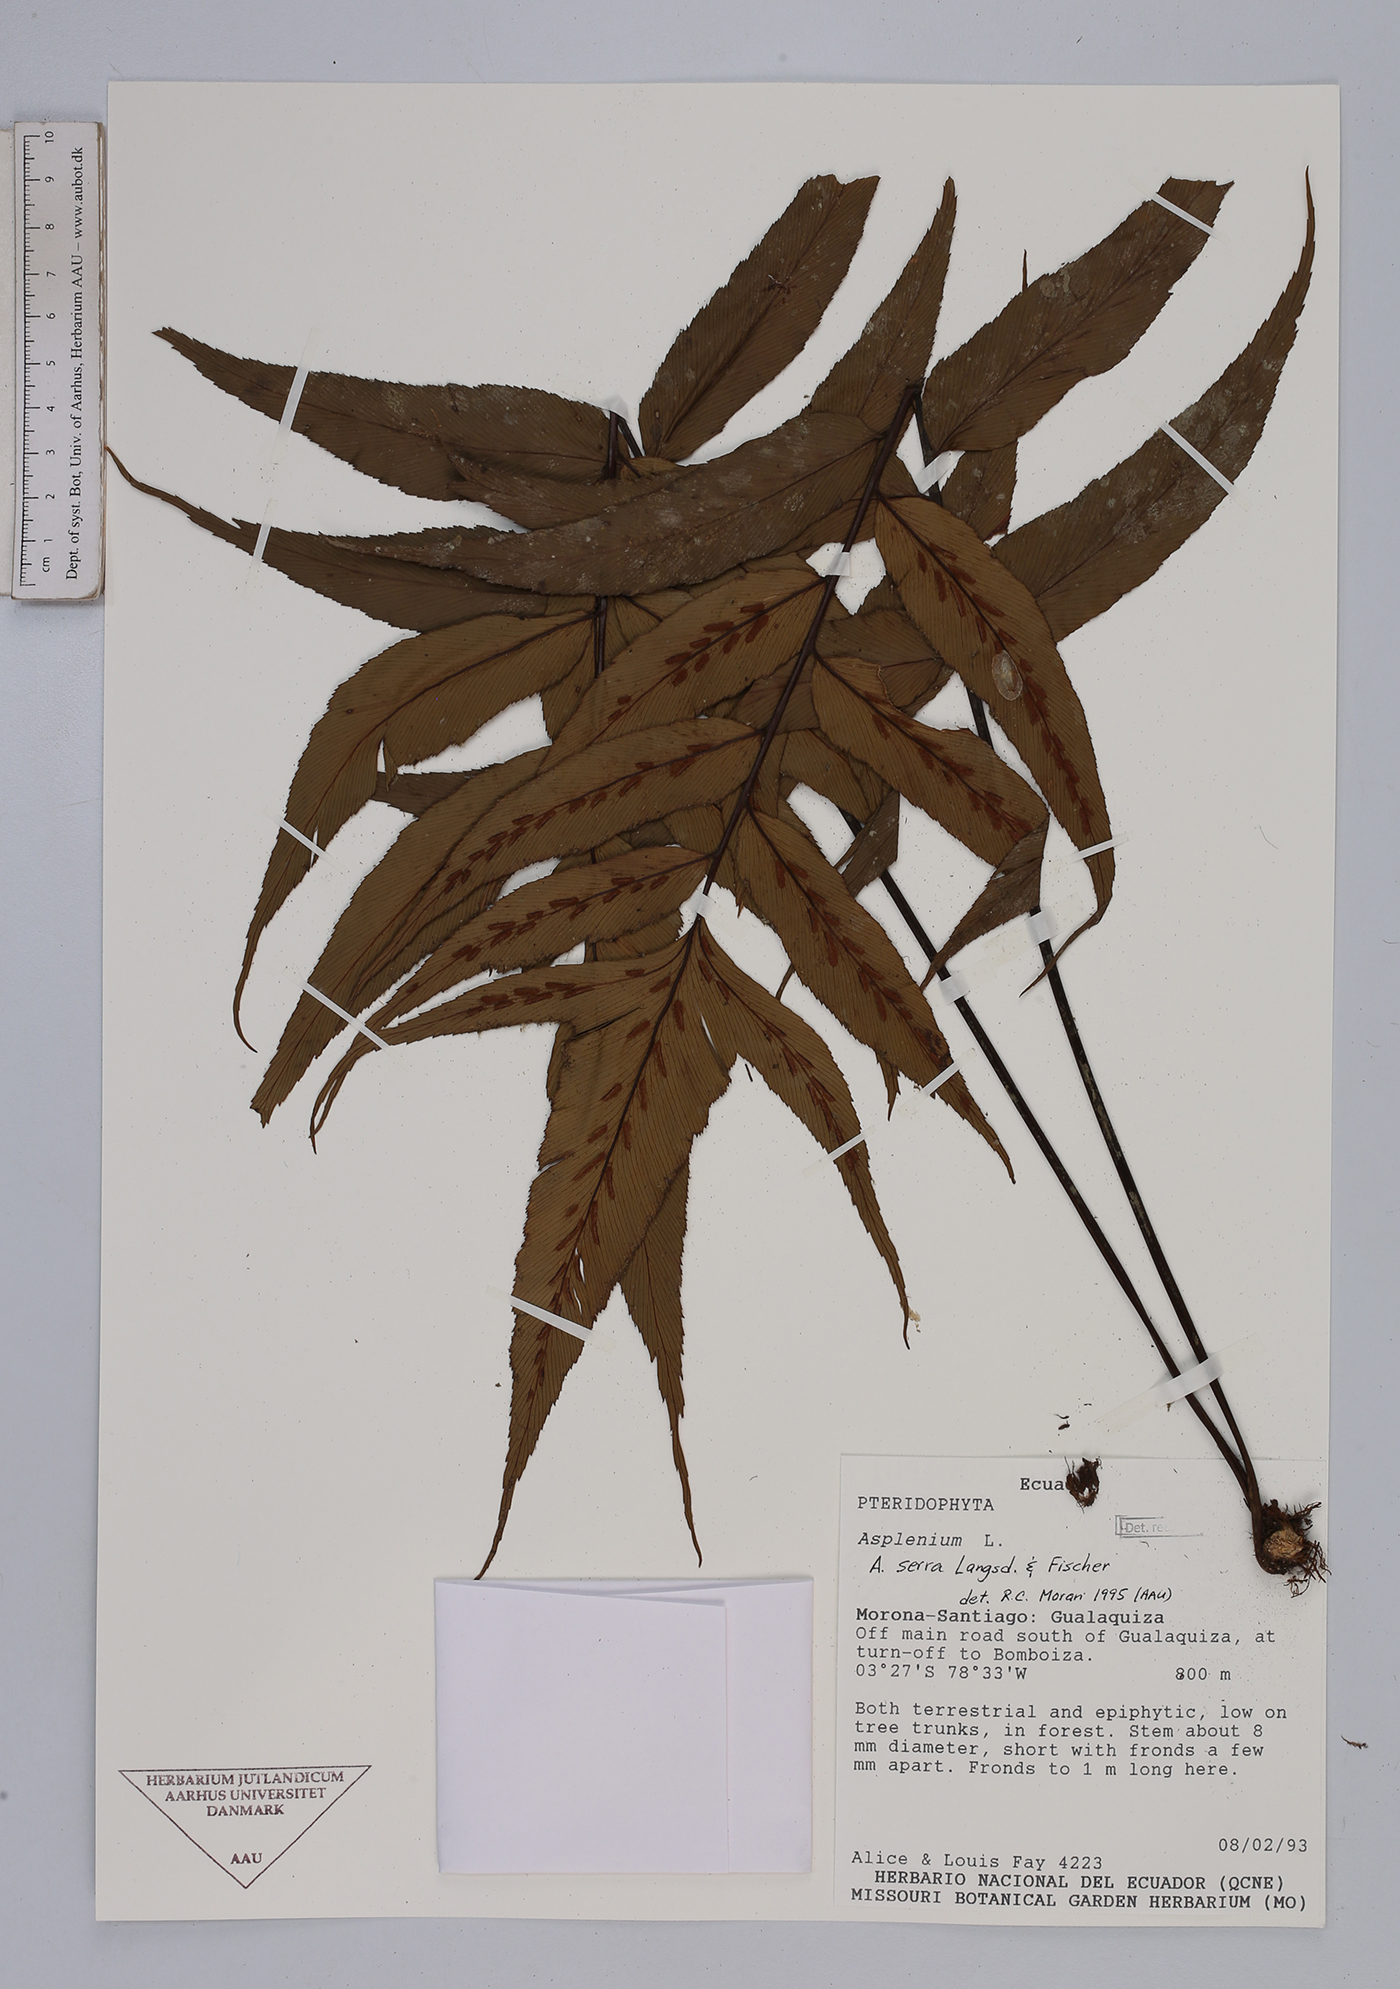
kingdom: Plantae
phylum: Tracheophyta
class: Polypodiopsida
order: Polypodiales
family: Aspleniaceae
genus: Asplenium
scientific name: Asplenium serra
